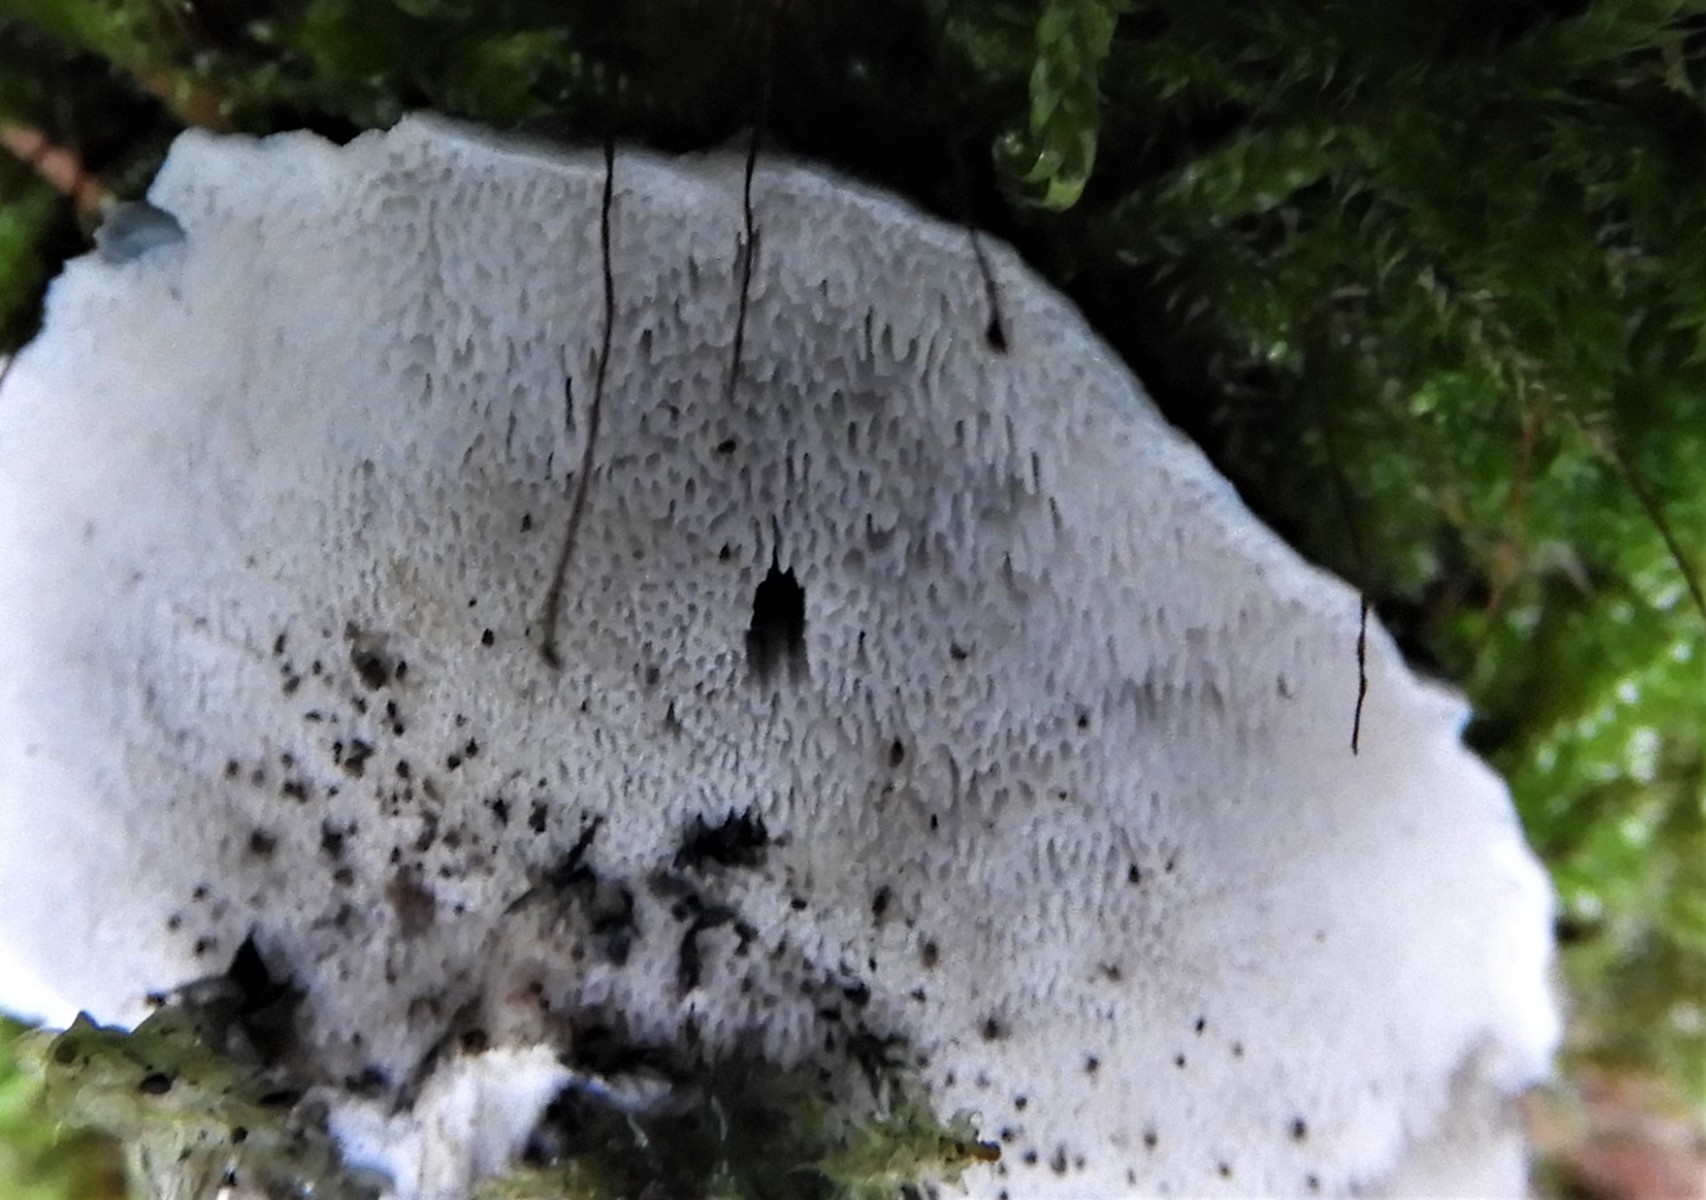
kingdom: Fungi
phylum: Basidiomycota
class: Agaricomycetes
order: Polyporales
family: Polyporaceae
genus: Cyanosporus
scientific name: Cyanosporus caesius
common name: blålig kødporesvamp
